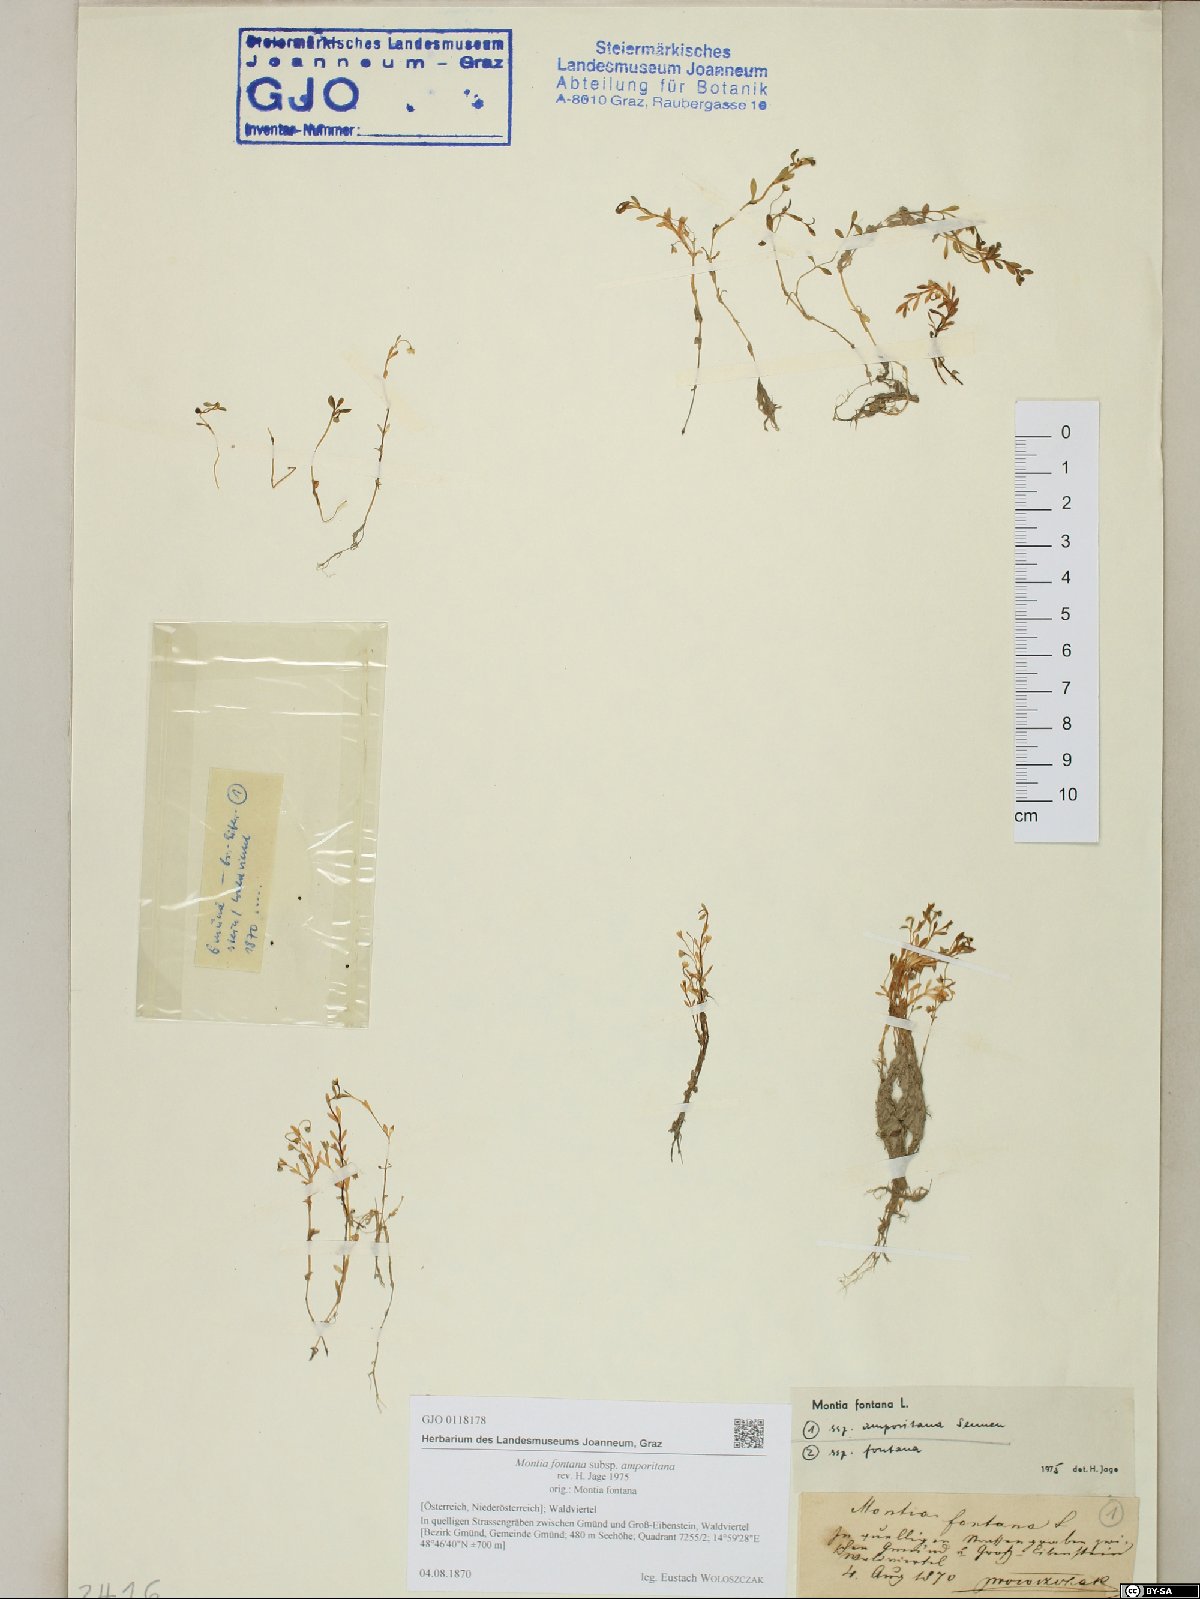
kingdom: Plantae
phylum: Tracheophyta
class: Magnoliopsida
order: Caryophyllales
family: Montiaceae
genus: Montia
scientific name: Montia fontana
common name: Blinks
